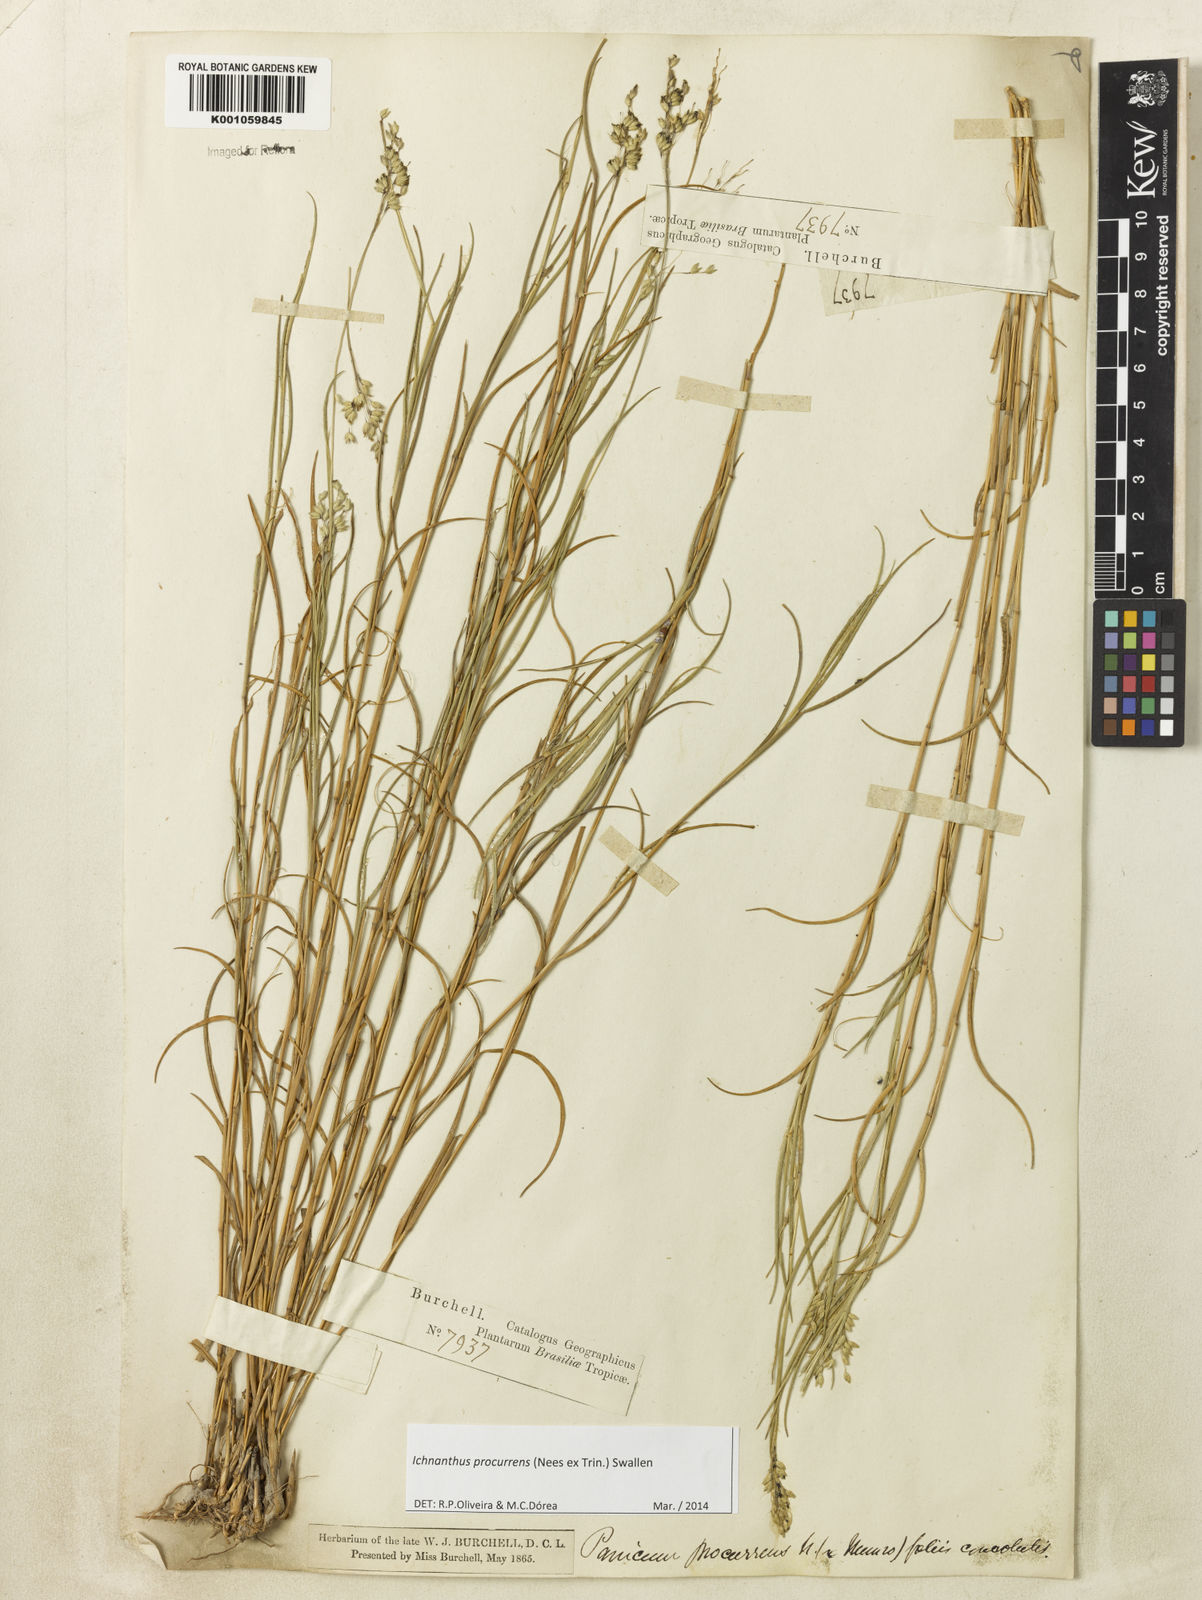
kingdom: Plantae
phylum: Tracheophyta
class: Liliopsida
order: Poales
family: Poaceae
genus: Oedochloa
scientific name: Oedochloa procurrens
